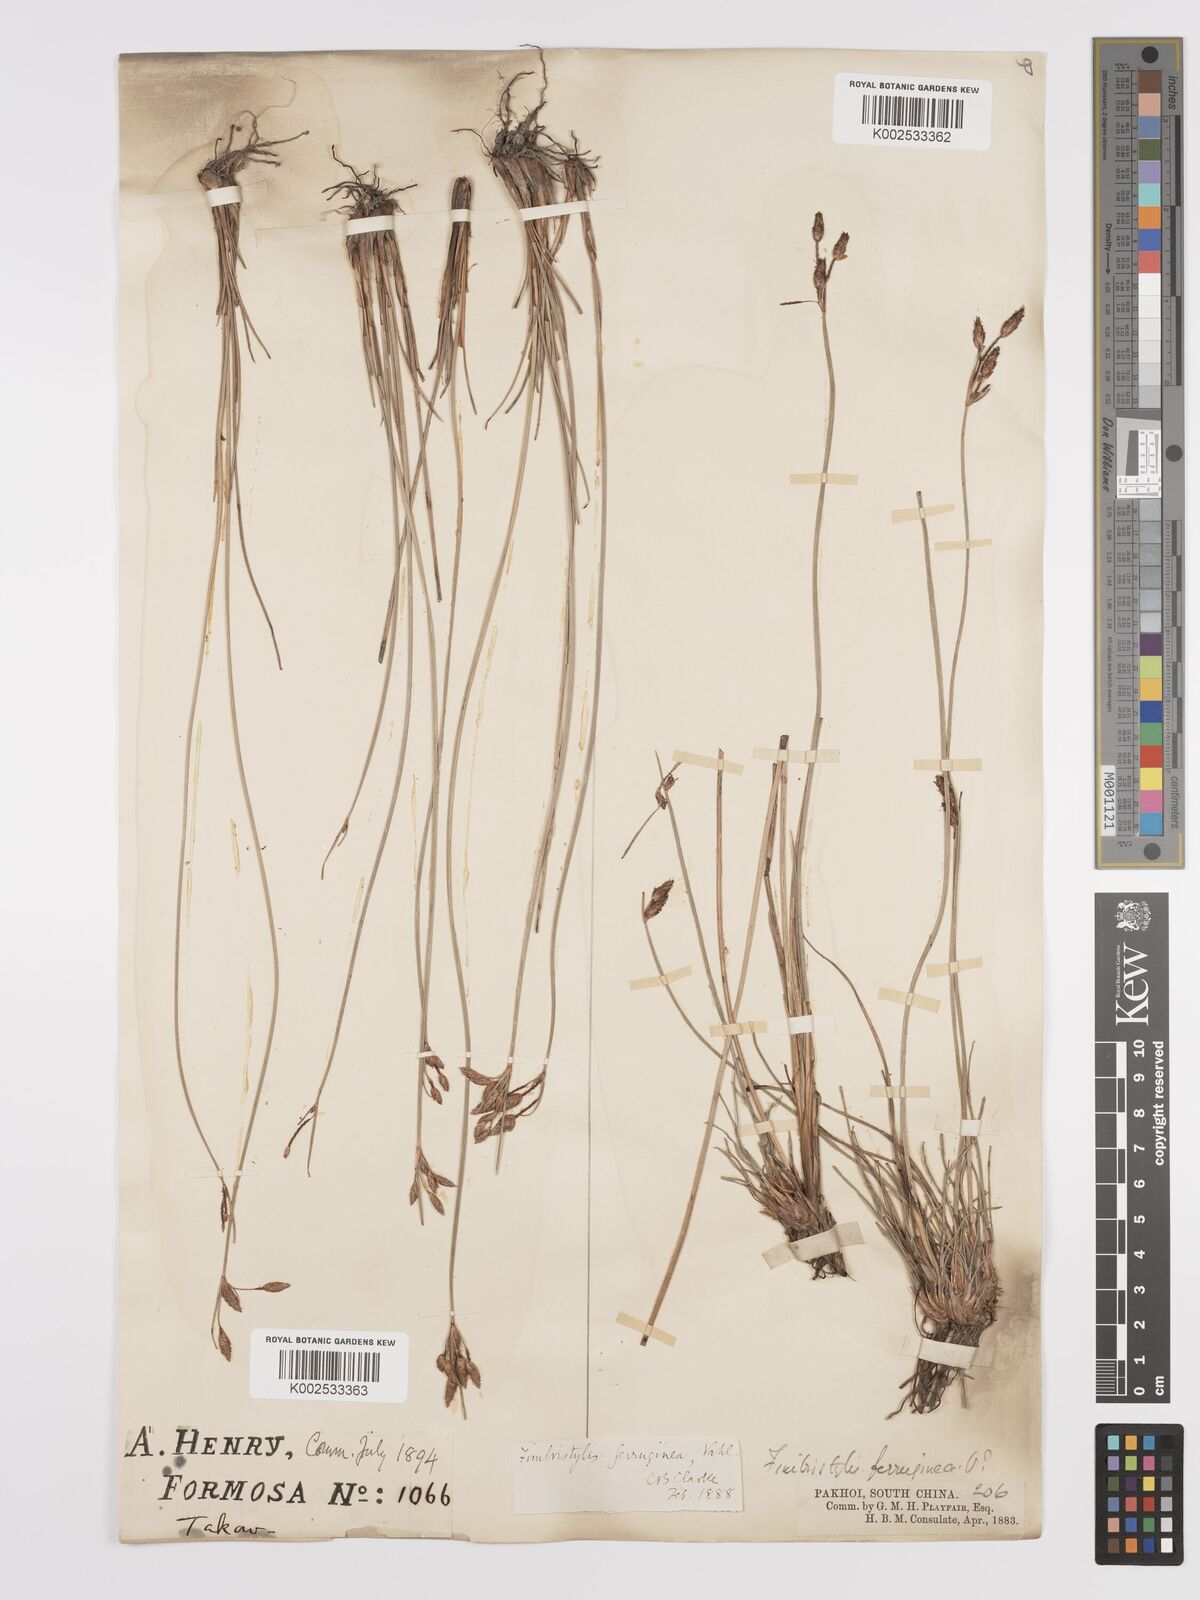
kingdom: Plantae
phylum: Tracheophyta
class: Liliopsida
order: Poales
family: Cyperaceae
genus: Fimbristylis
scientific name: Fimbristylis ferruginea
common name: West indian fimbry
